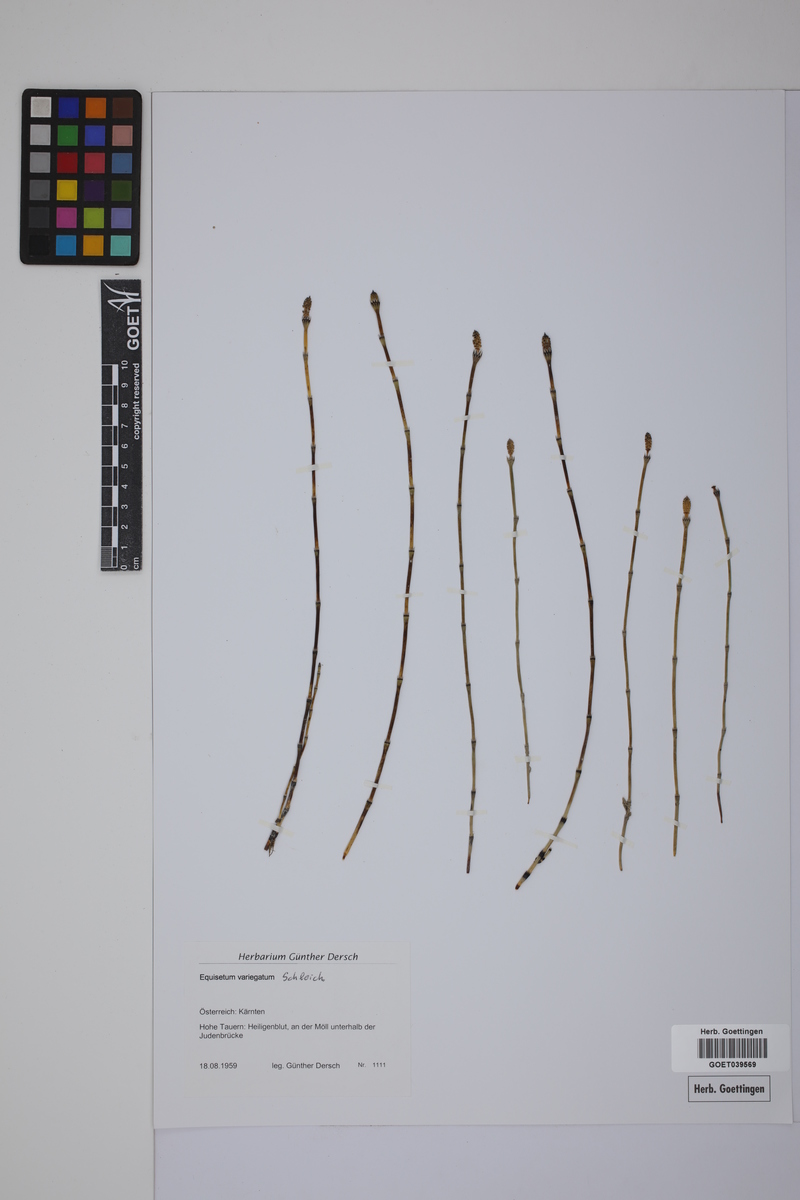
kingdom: Plantae
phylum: Tracheophyta
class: Polypodiopsida
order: Equisetales
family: Equisetaceae
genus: Equisetum
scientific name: Equisetum variegatum
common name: Variegated horsetail
